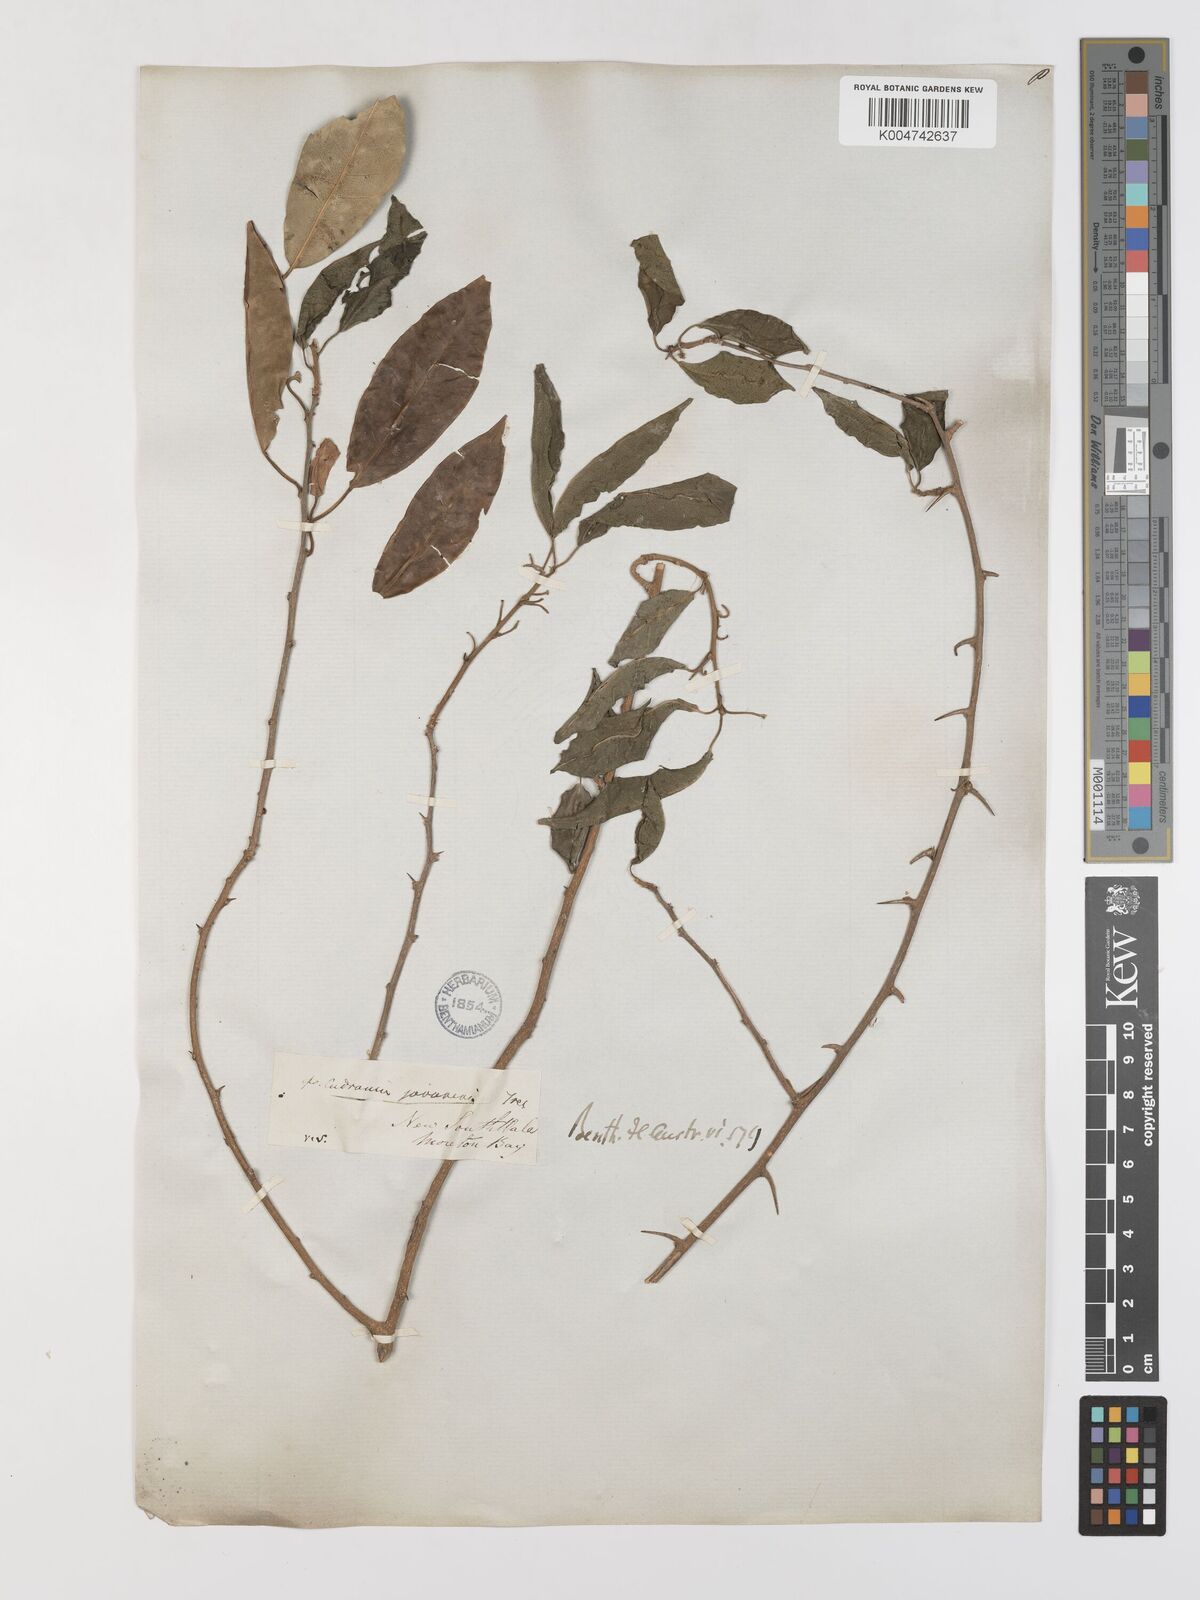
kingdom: Plantae
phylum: Tracheophyta
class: Magnoliopsida
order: Rosales
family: Moraceae
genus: Maclura
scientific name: Maclura cochinchinensis
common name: Cockspurthorn
